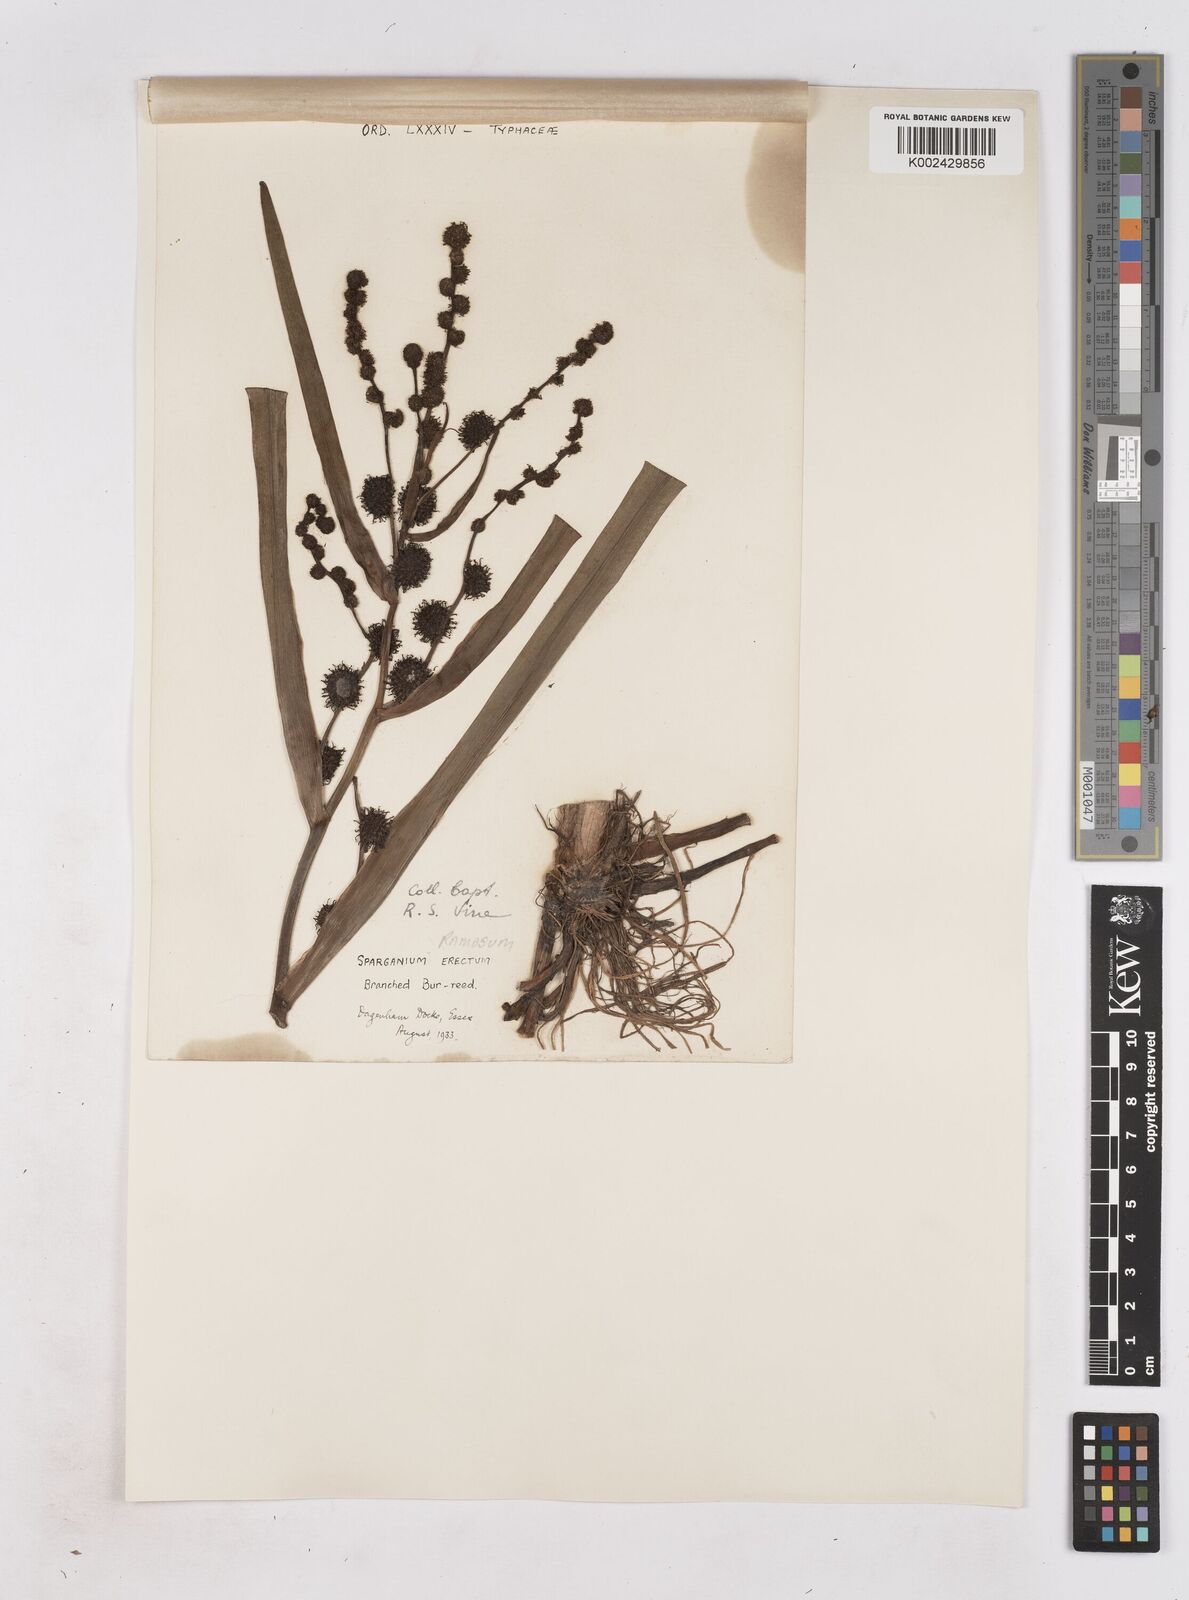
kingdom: Plantae
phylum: Tracheophyta
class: Liliopsida
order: Poales
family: Typhaceae
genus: Sparganium
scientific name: Sparganium erectum
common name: Branched bur-reed
